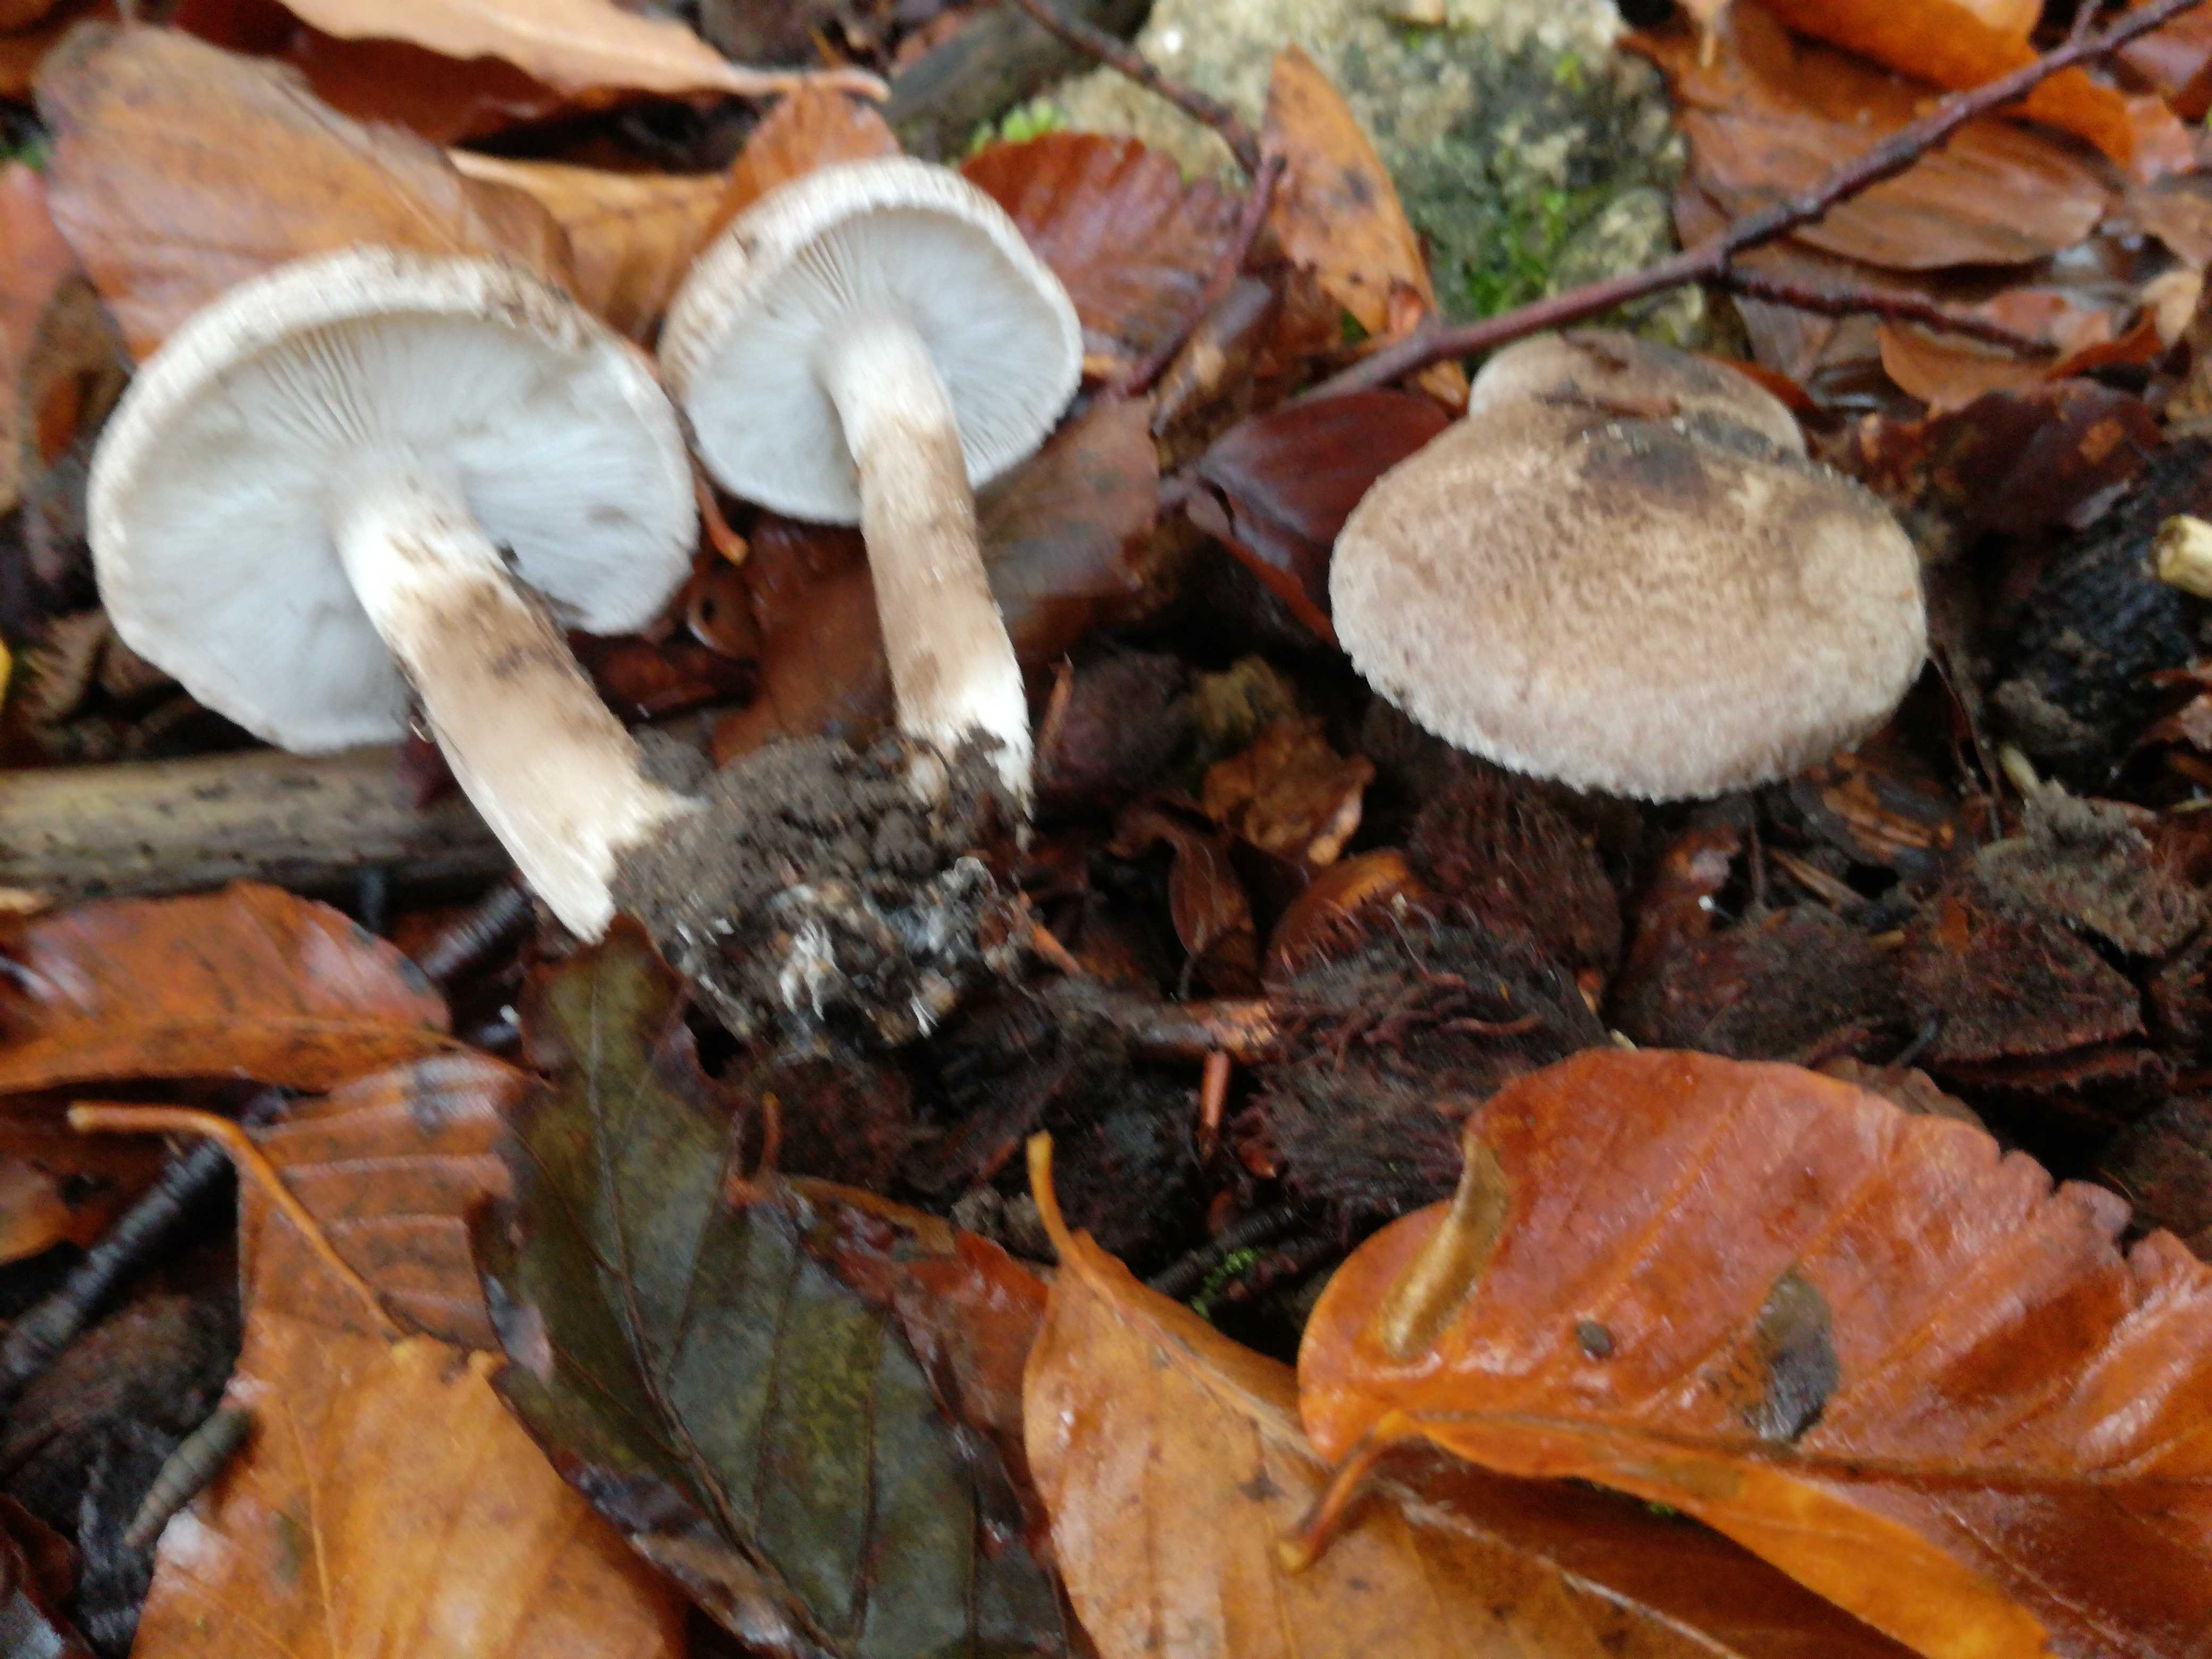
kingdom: Fungi
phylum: Basidiomycota
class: Agaricomycetes
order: Agaricales
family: Tricholomataceae
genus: Tricholoma
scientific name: Tricholoma scalpturatum
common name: gulplettet ridderhat
